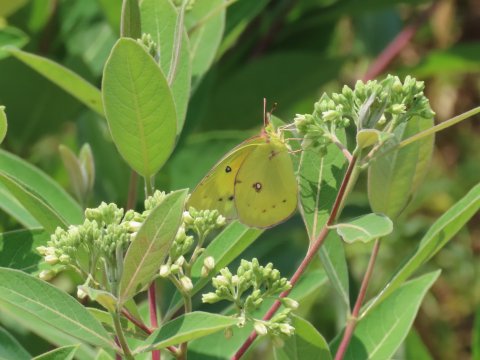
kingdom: Animalia
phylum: Arthropoda
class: Insecta
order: Lepidoptera
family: Pieridae
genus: Colias
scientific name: Colias eurytheme
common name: Orange Sulphur
